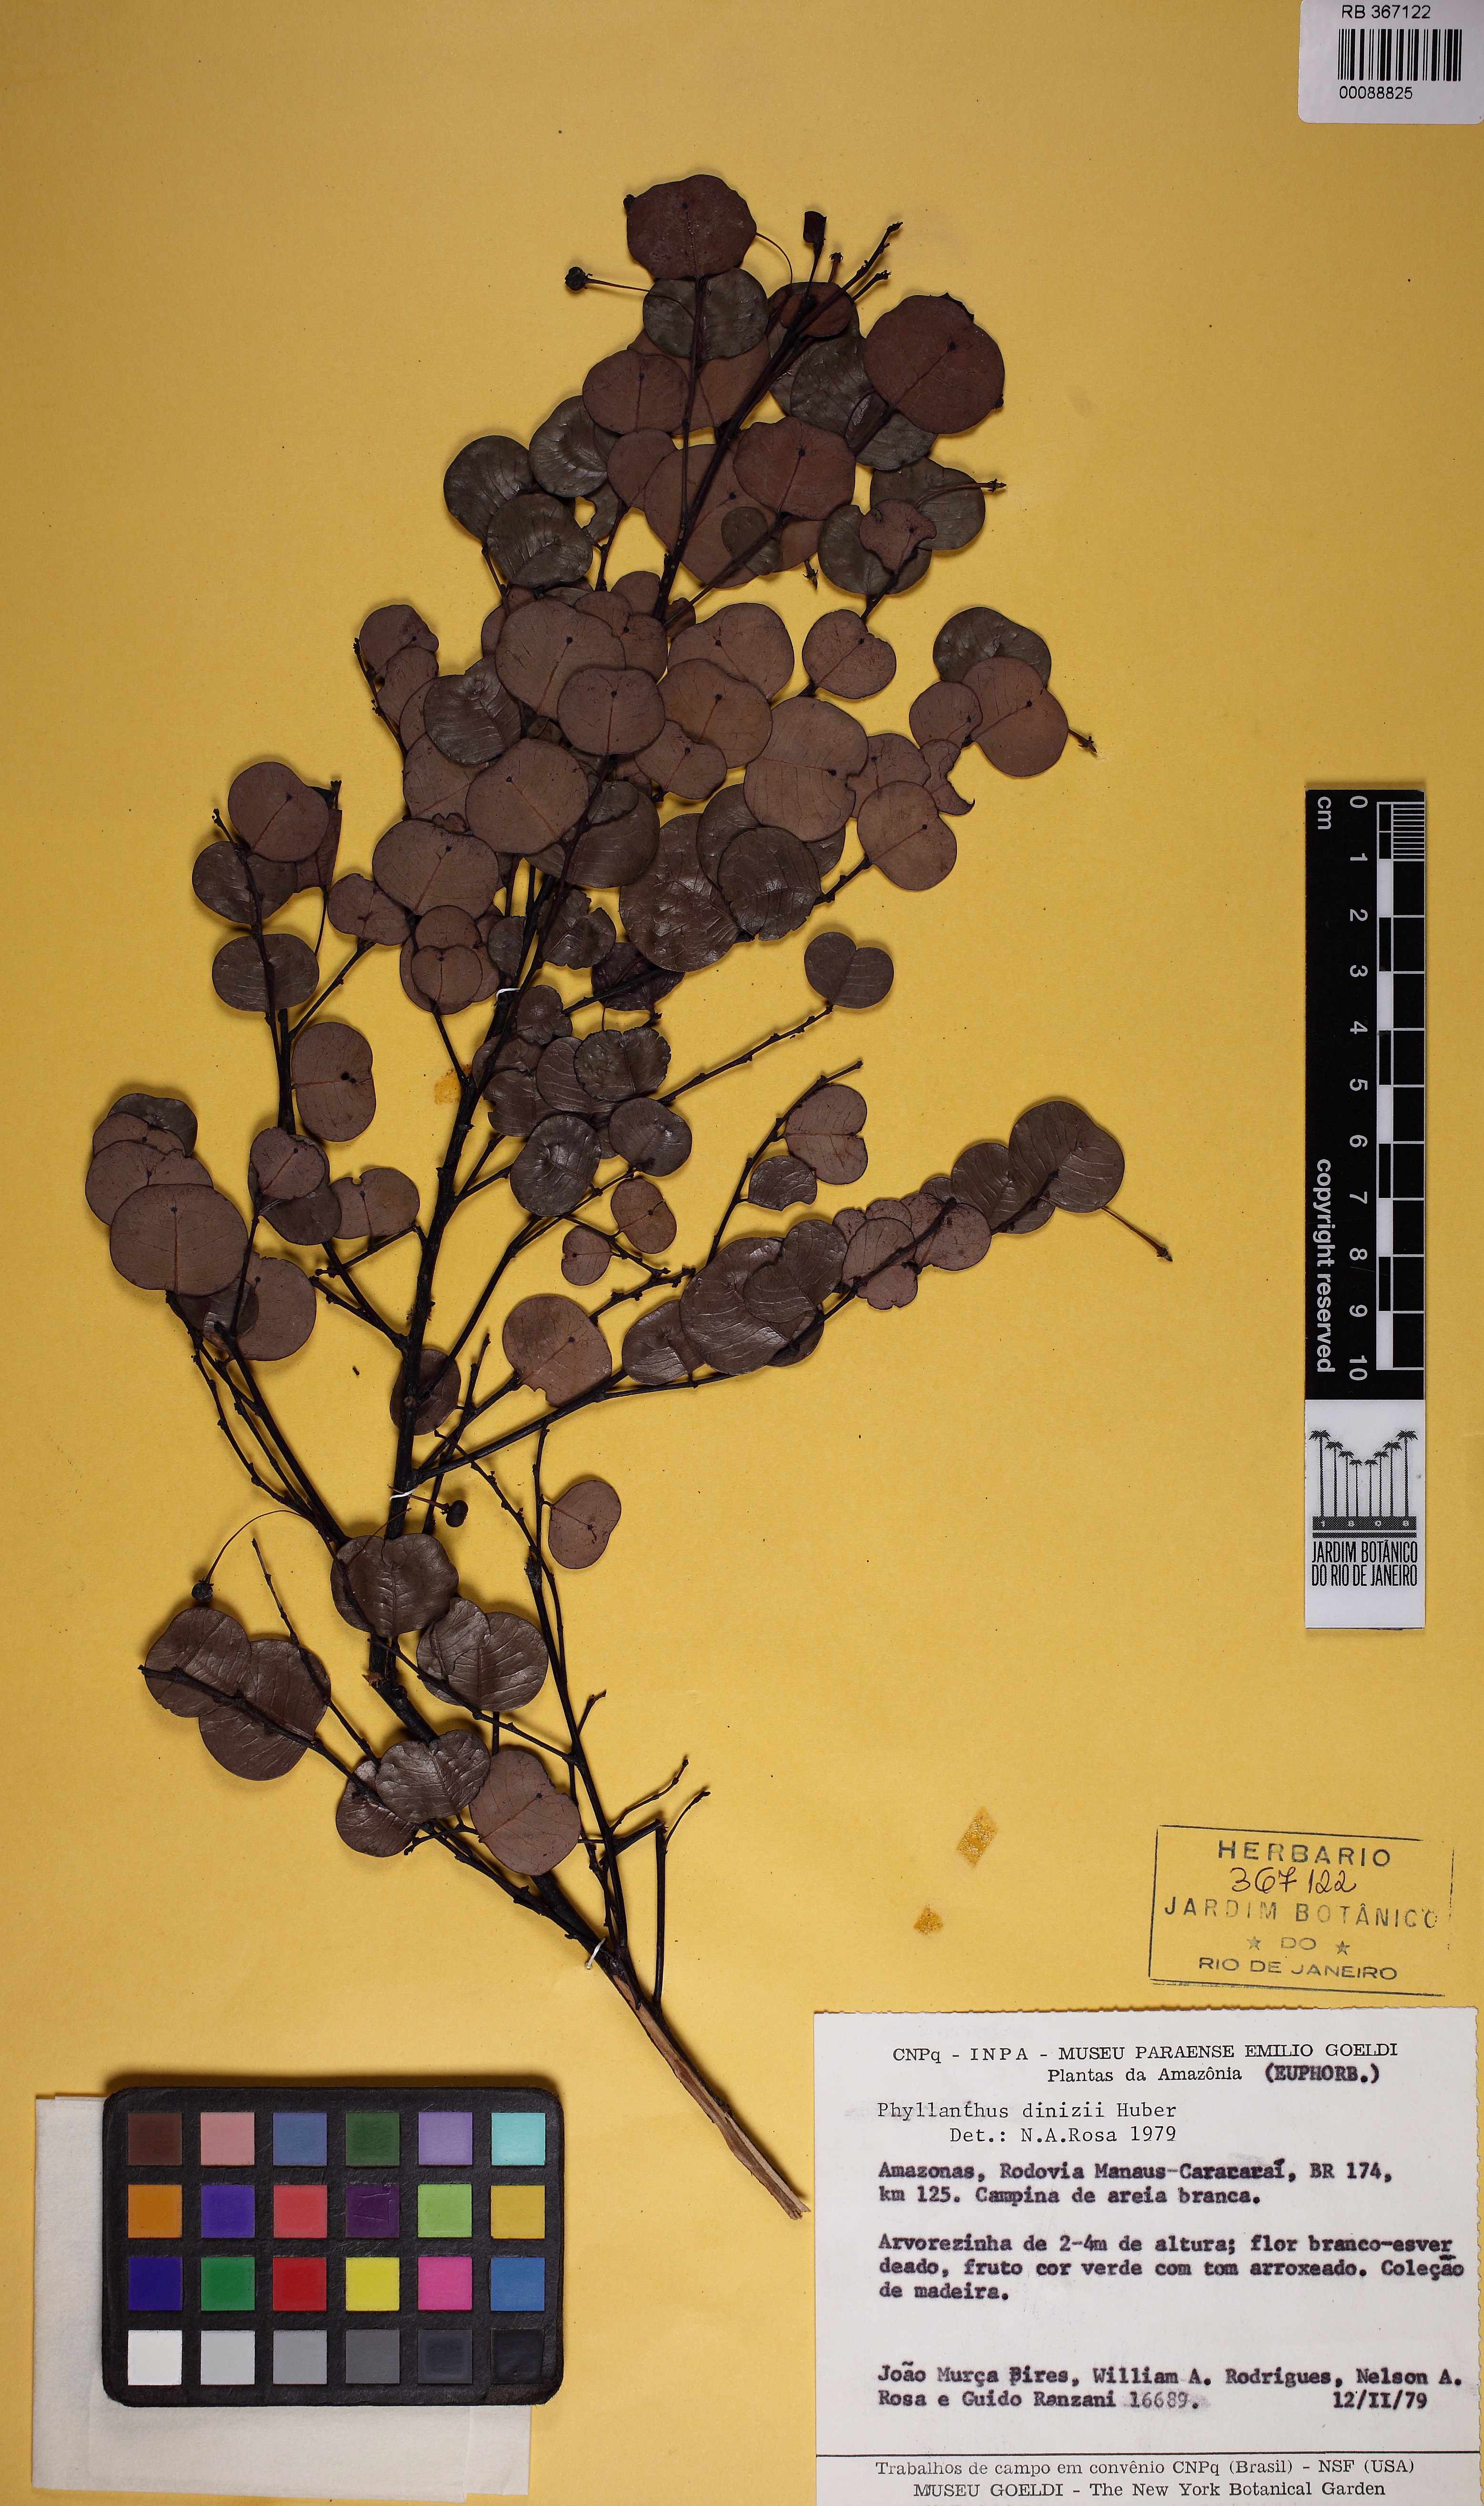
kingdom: Plantae
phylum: Tracheophyta
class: Magnoliopsida
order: Malpighiales
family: Phyllanthaceae
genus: Phyllanthus
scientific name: Phyllanthus myrsinites
